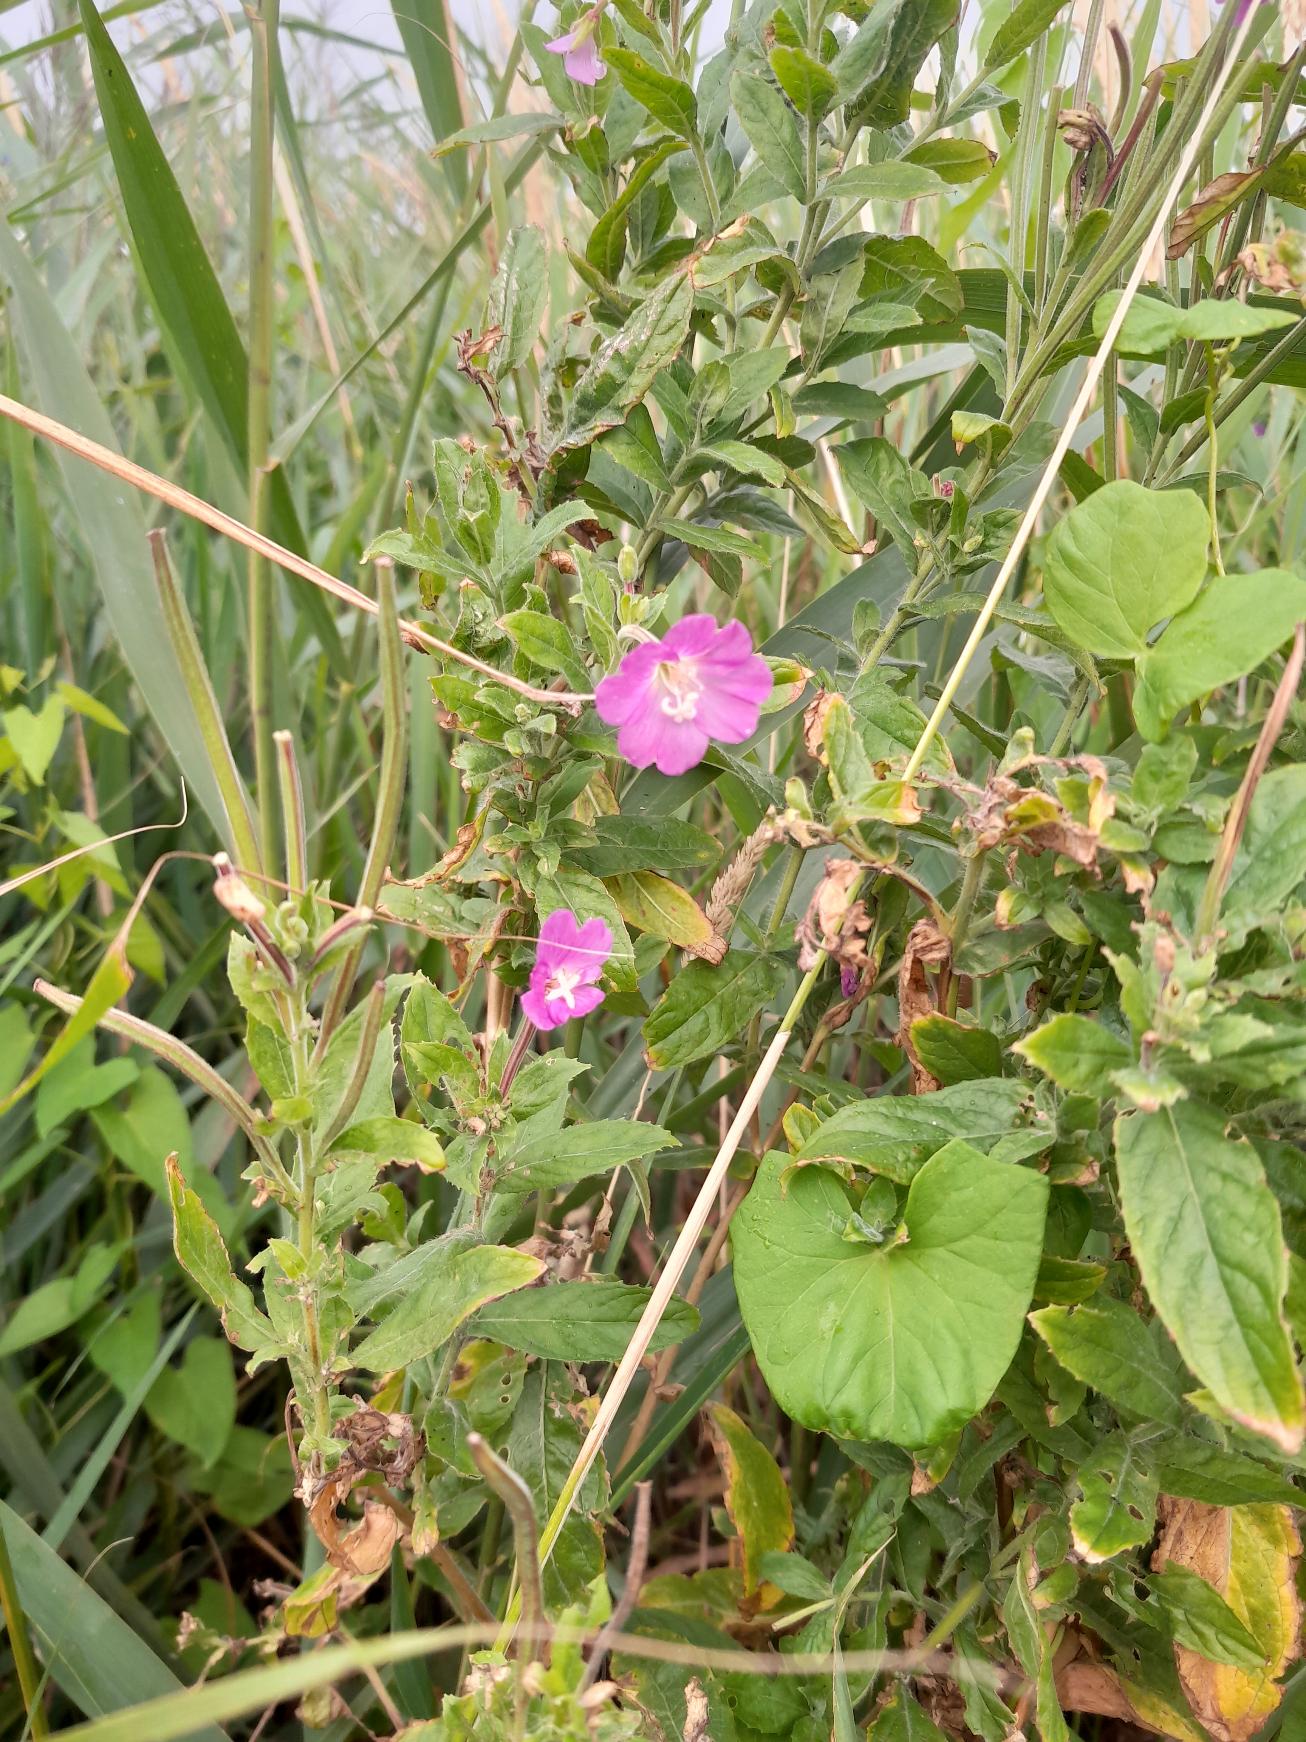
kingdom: Plantae
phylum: Tracheophyta
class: Magnoliopsida
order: Myrtales
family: Onagraceae
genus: Epilobium
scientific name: Epilobium hirsutum
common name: Lådden dueurt
